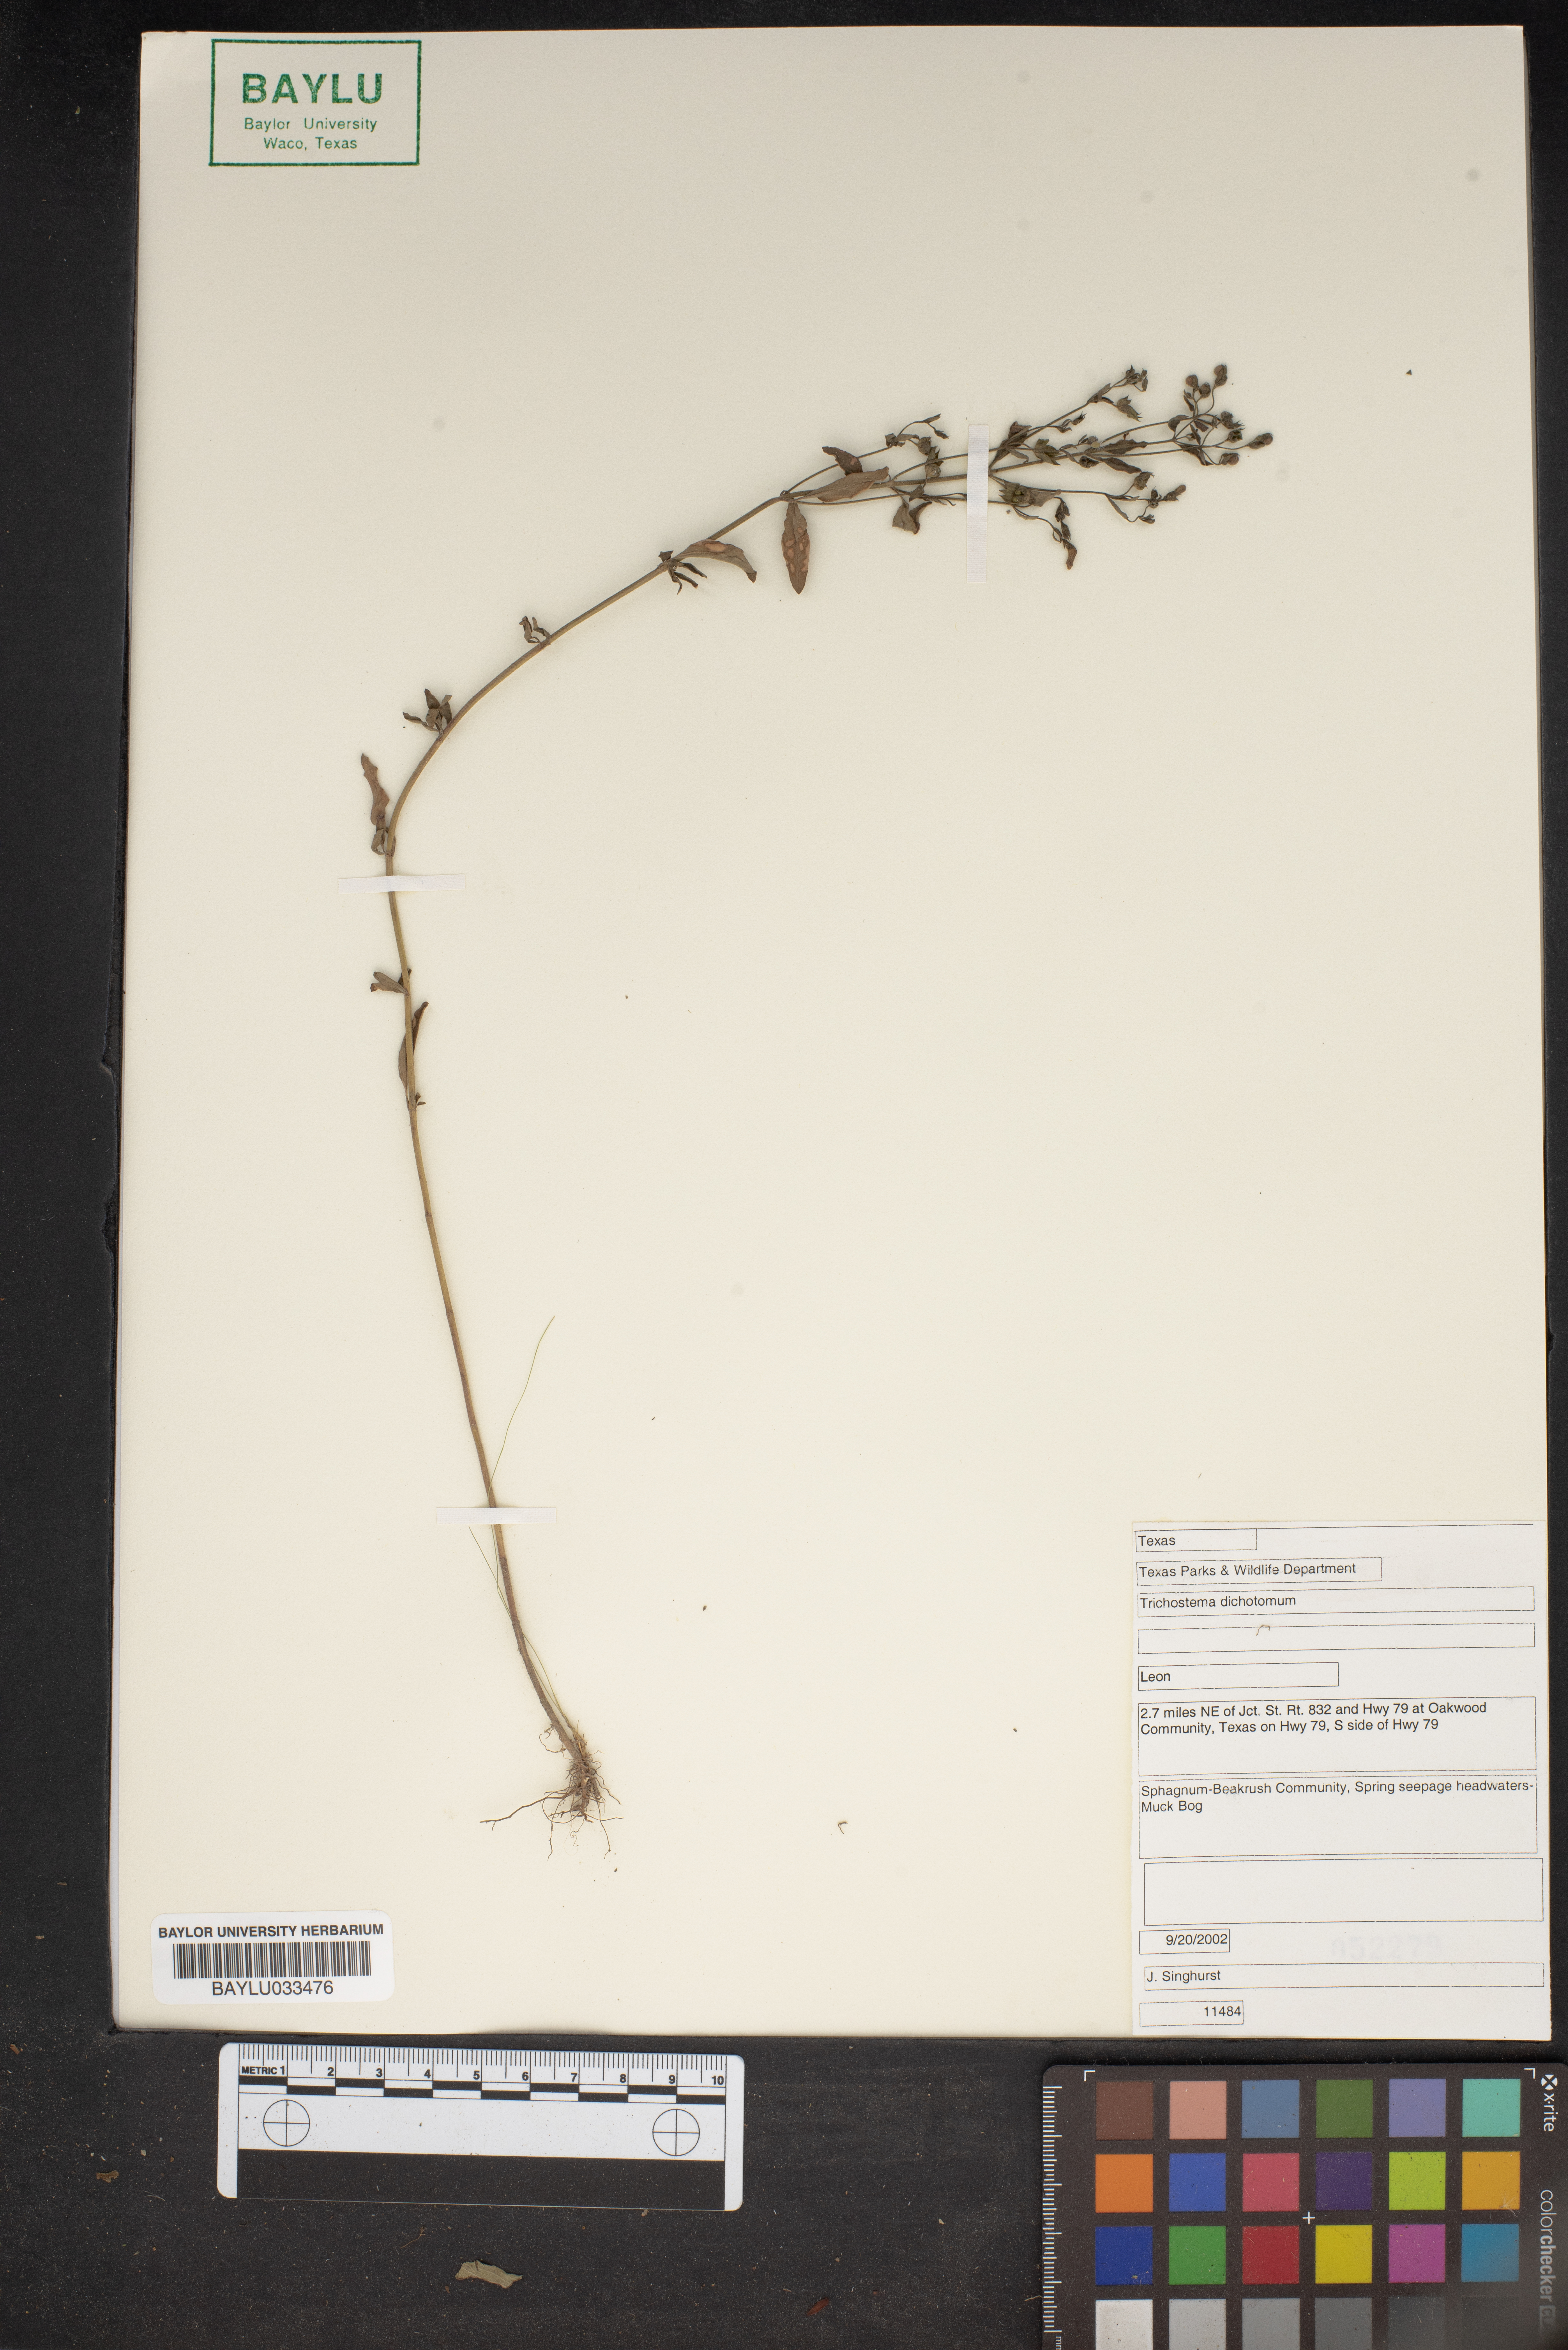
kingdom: Plantae
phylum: Tracheophyta
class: Magnoliopsida
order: Lamiales
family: Lamiaceae
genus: Trichostema
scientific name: Trichostema dichotomum
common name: Bastard pennyroyal
